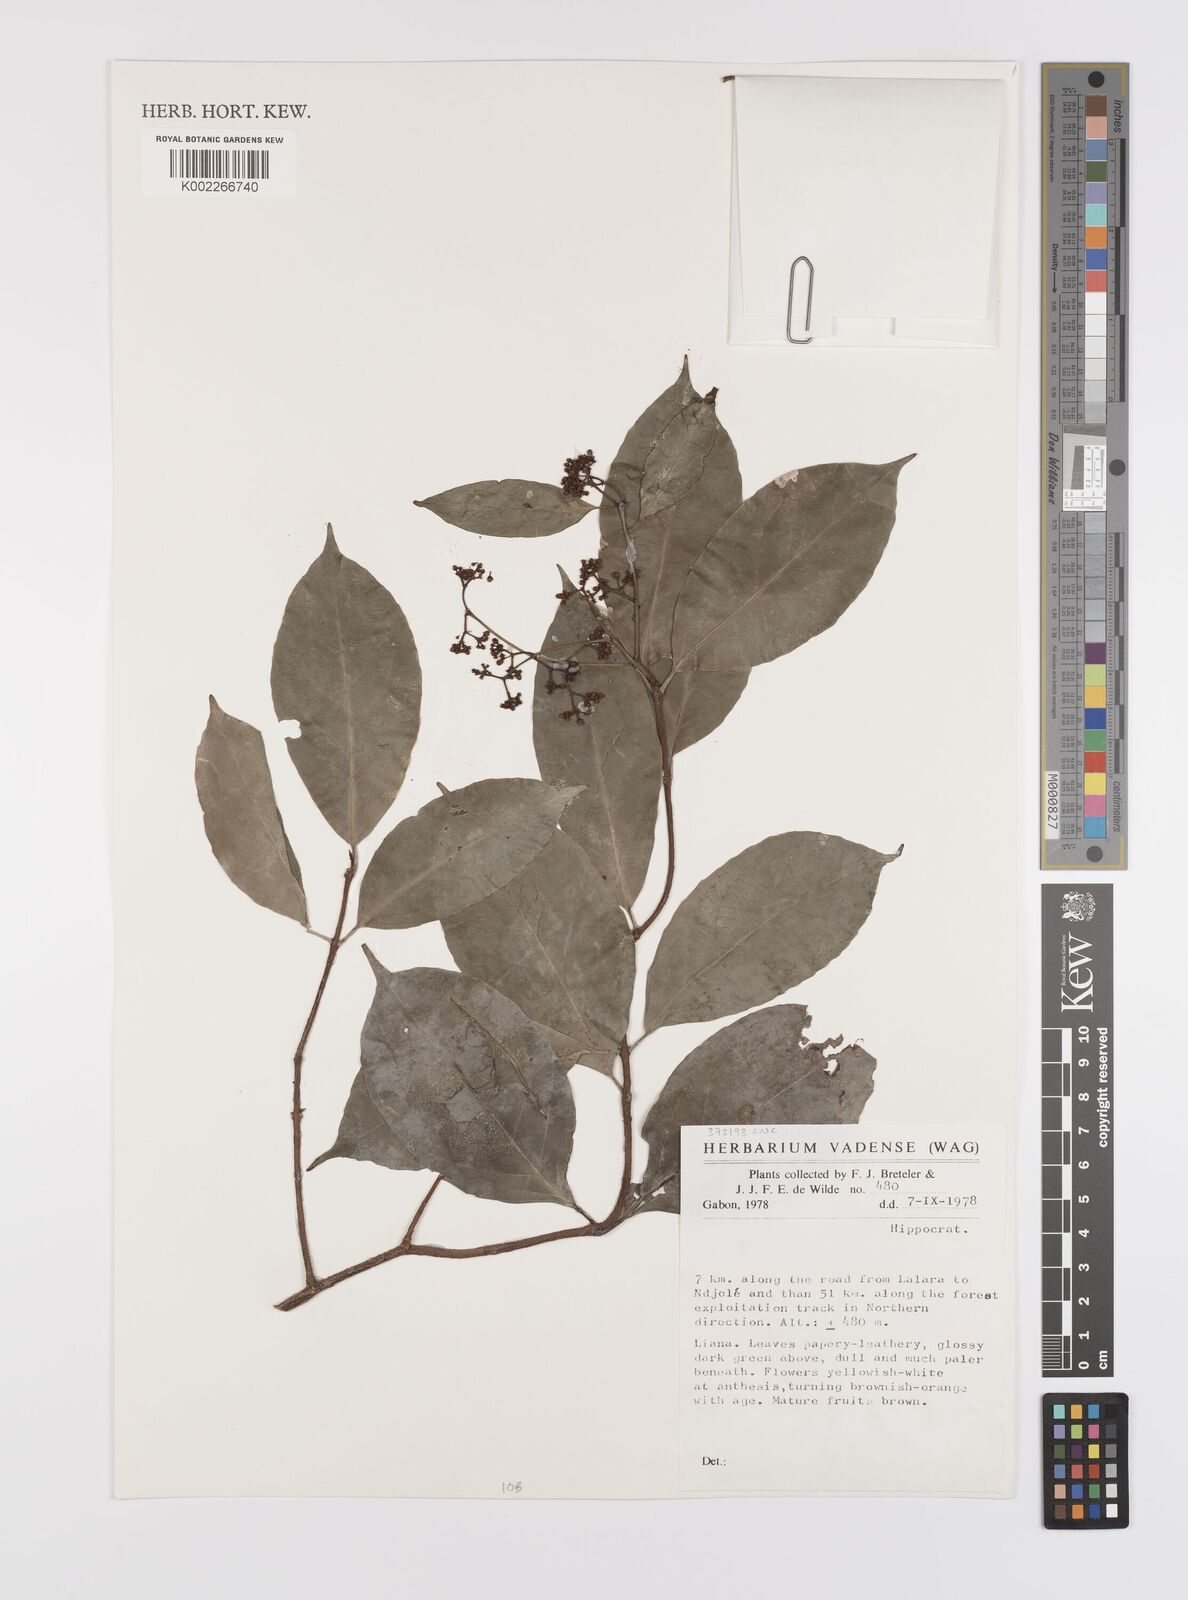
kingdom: Plantae
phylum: Tracheophyta
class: Magnoliopsida
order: Celastrales
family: Celastraceae
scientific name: Celastraceae
